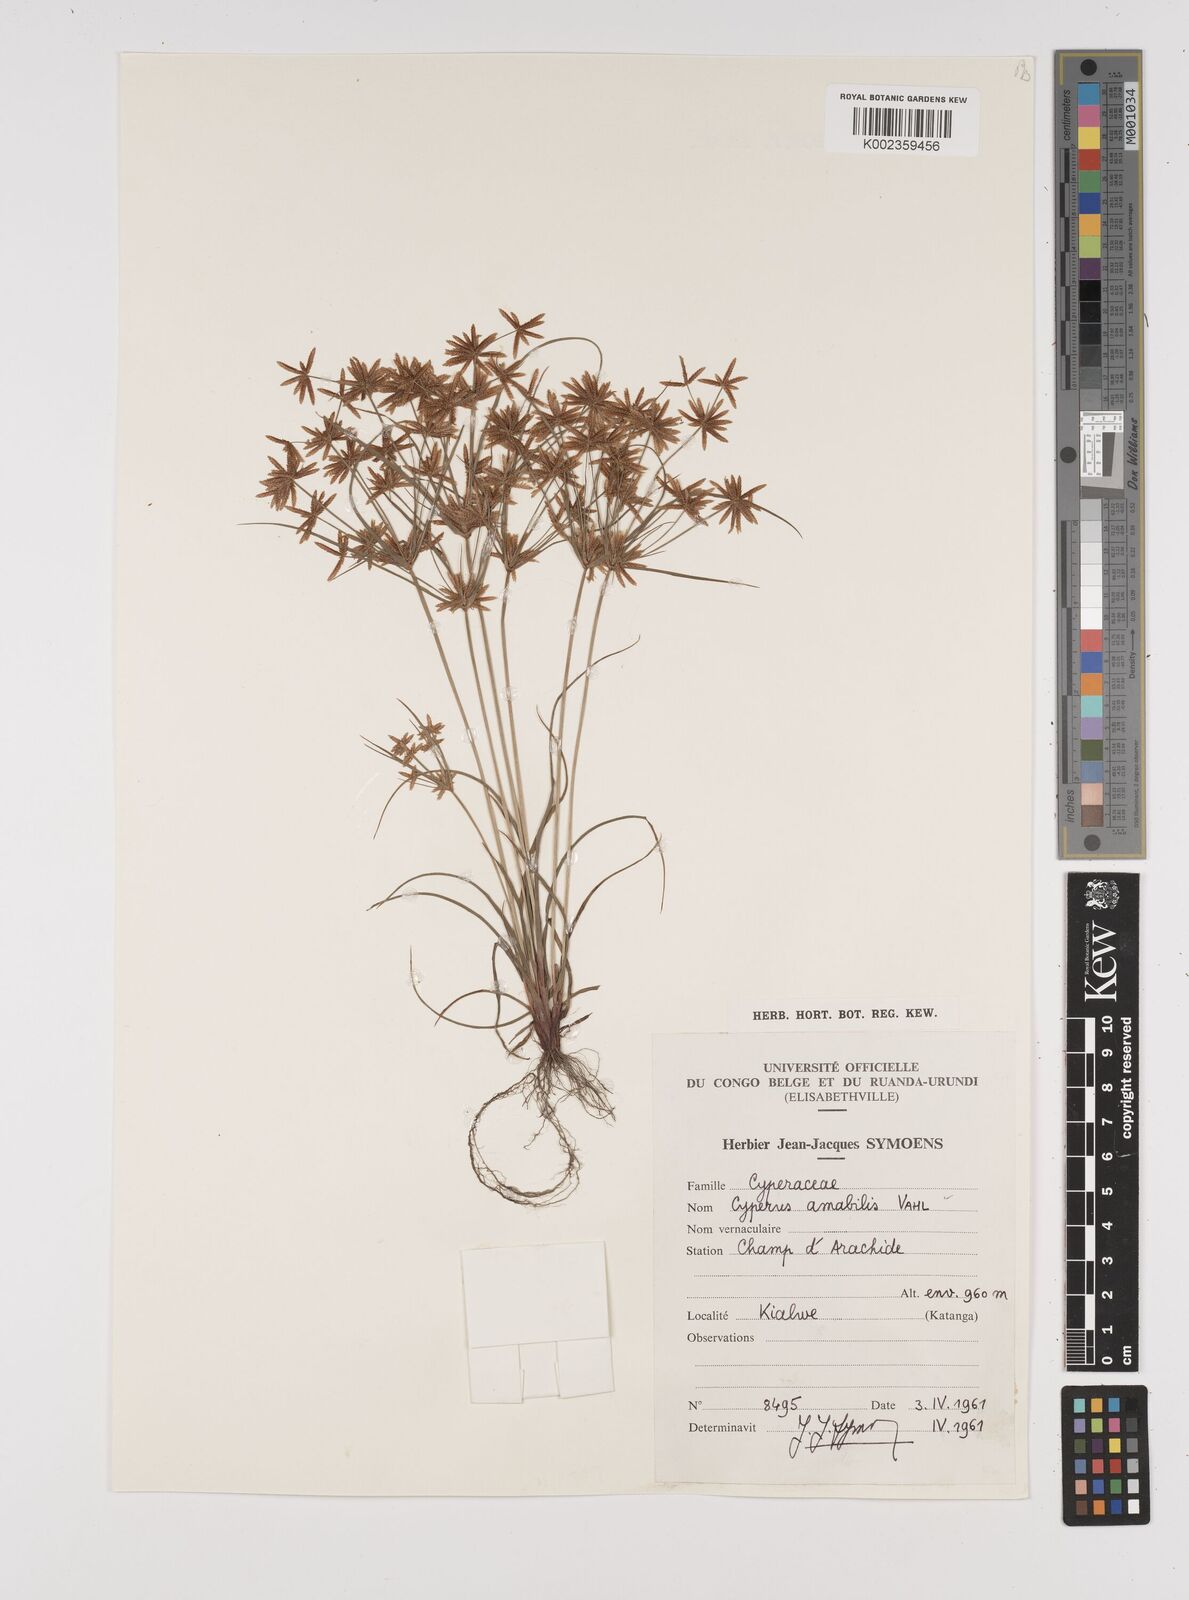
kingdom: Plantae
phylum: Tracheophyta
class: Liliopsida
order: Poales
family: Cyperaceae
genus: Cyperus
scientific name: Cyperus amabilis
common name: Foothill flat sedge
